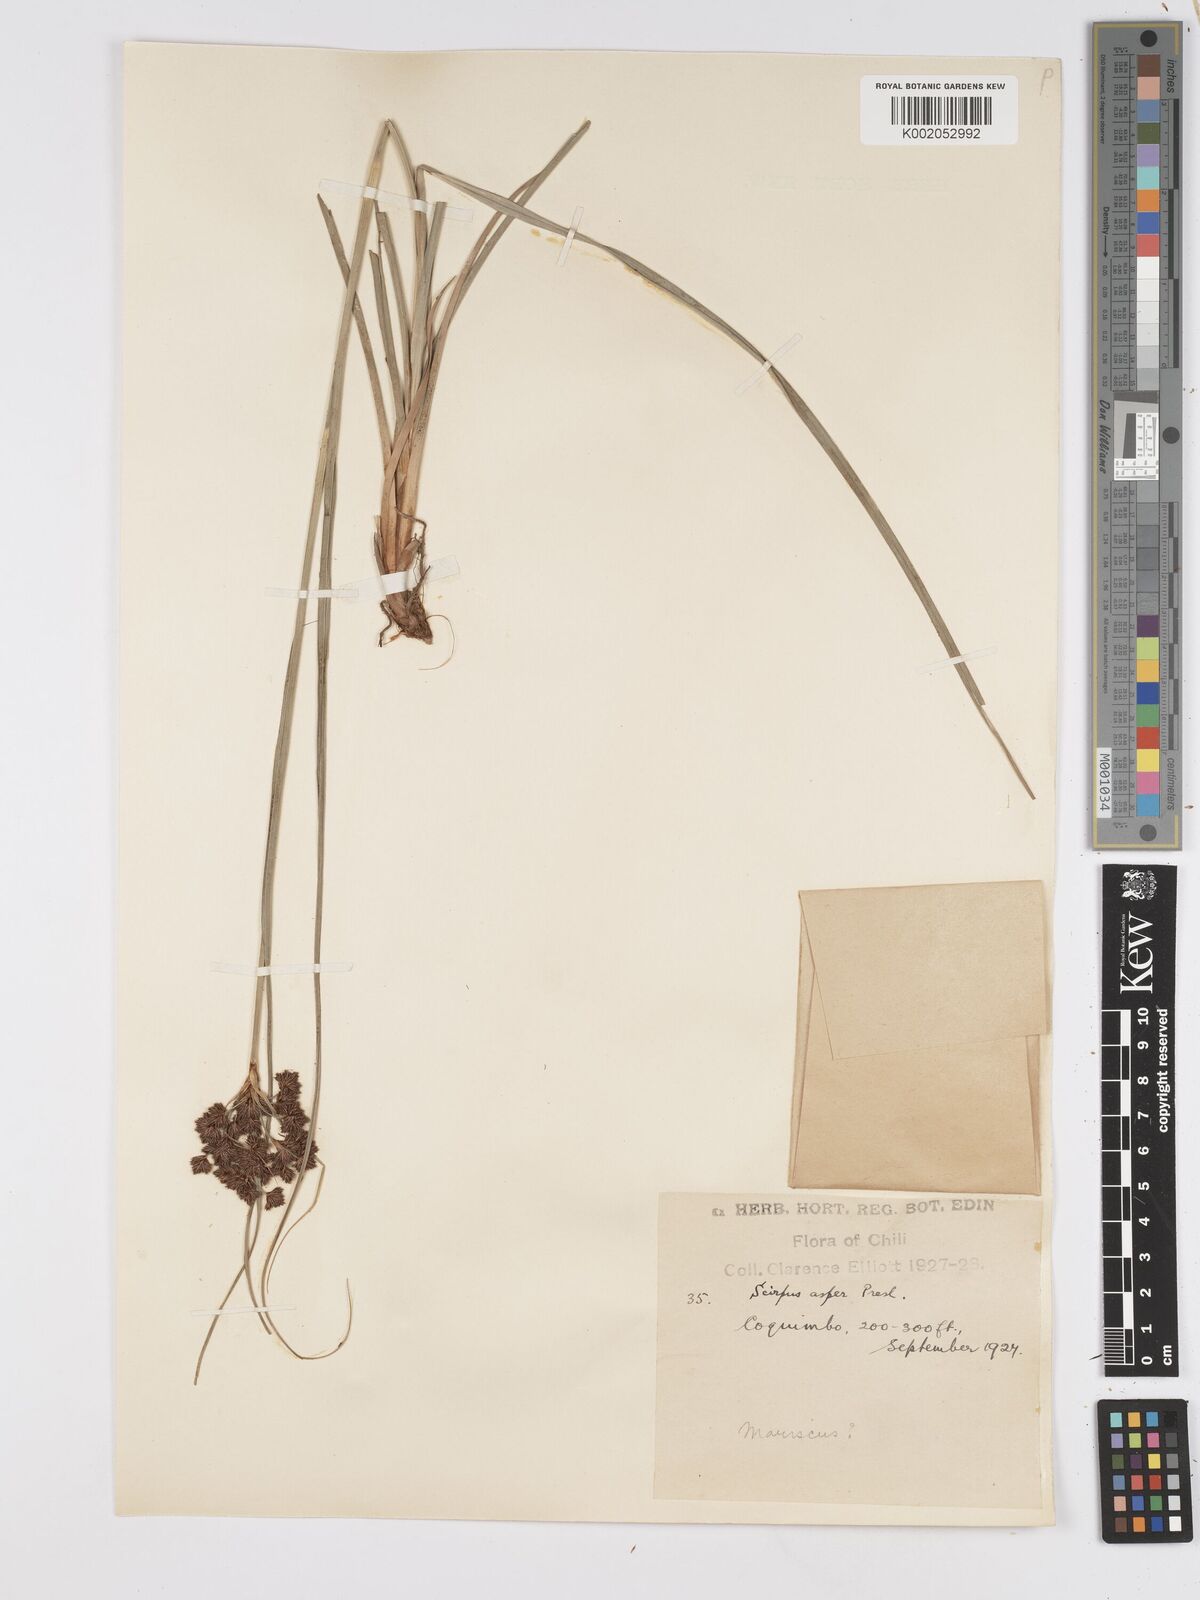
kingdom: Plantae
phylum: Tracheophyta
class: Liliopsida
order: Poales
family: Cyperaceae
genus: Rhodoscirpus
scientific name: Rhodoscirpus asper
